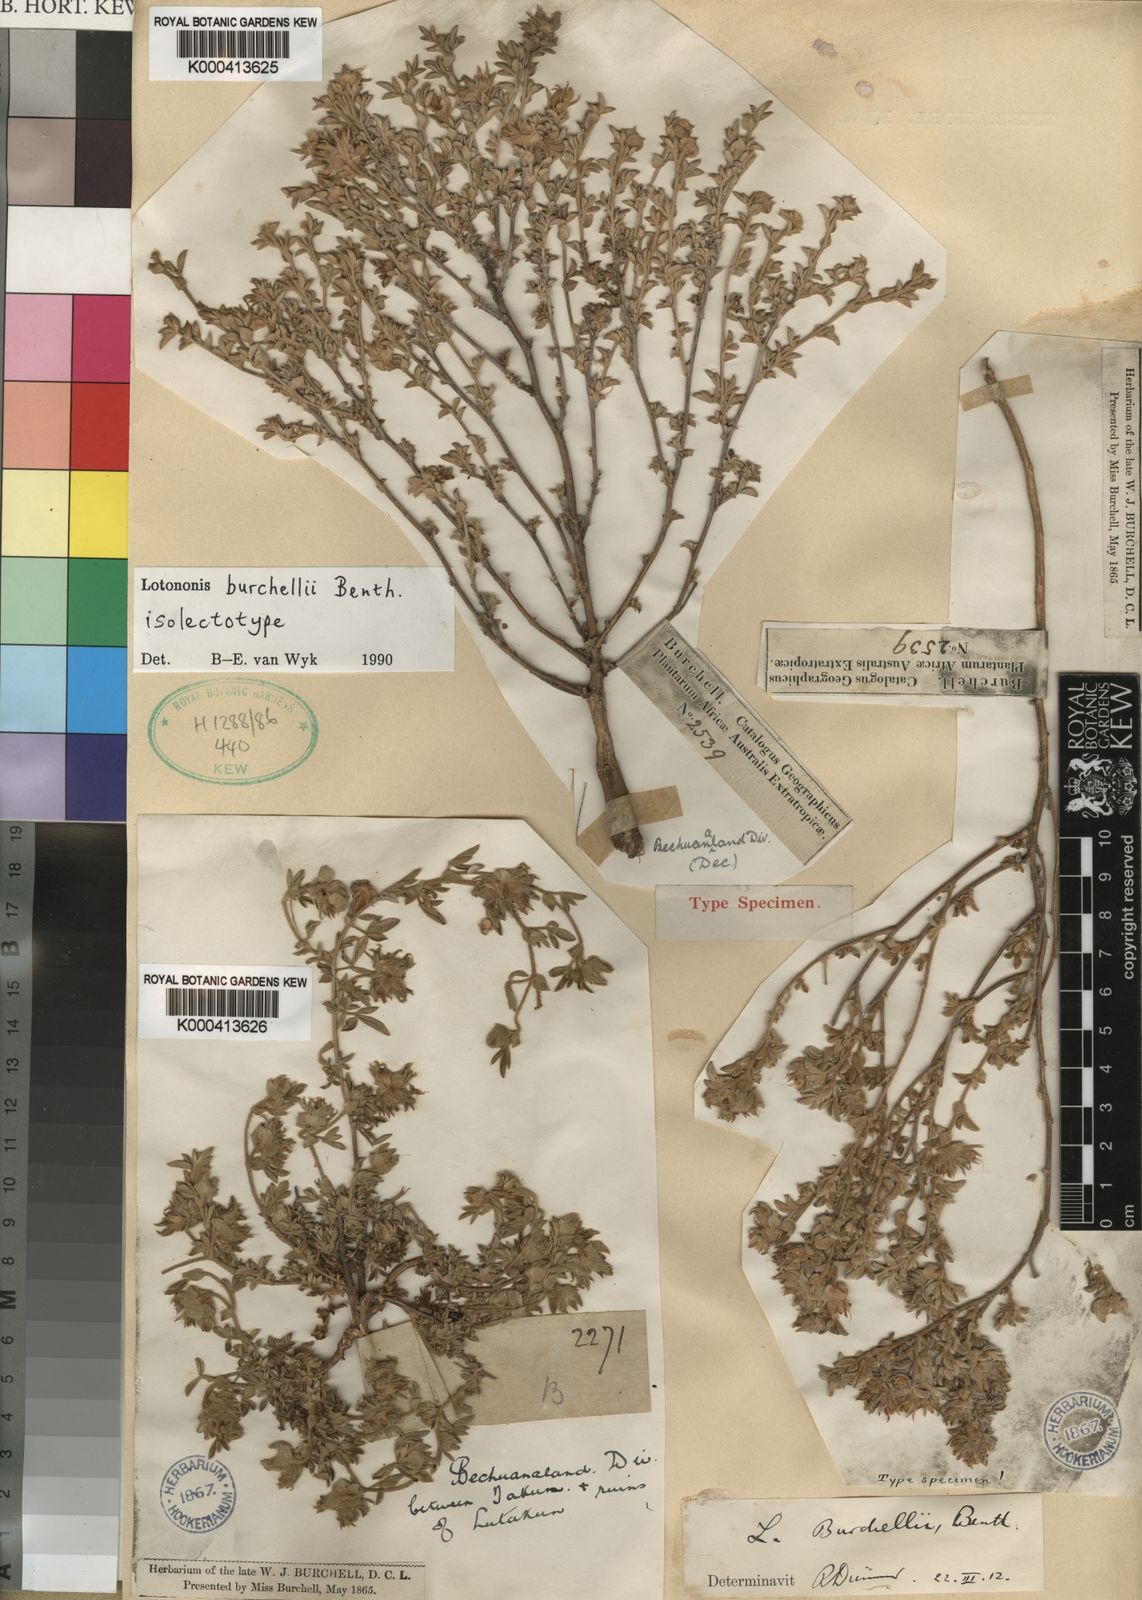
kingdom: Plantae
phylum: Tracheophyta
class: Magnoliopsida
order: Fabales
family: Fabaceae
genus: Lotononis
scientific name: Lotononis burchellii
